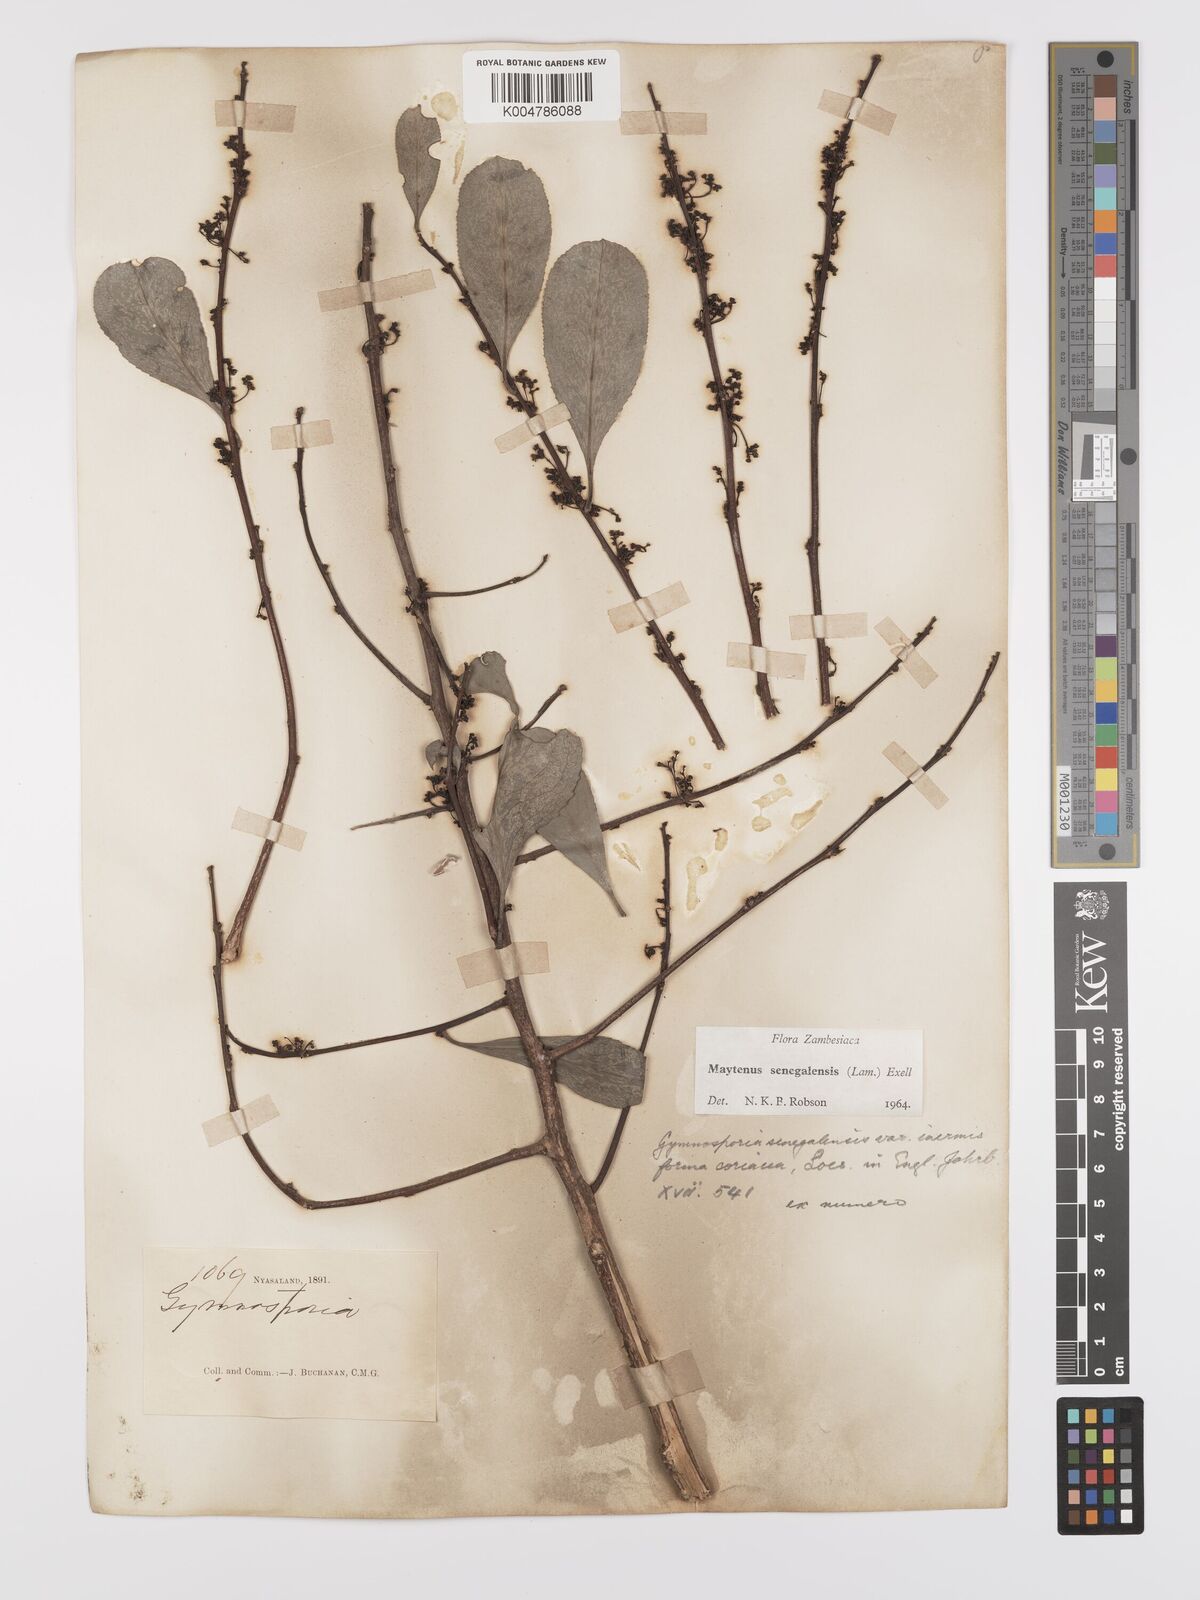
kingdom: Plantae
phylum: Tracheophyta
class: Magnoliopsida
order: Celastrales
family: Celastraceae
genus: Gymnosporia
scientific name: Gymnosporia senegalensis
